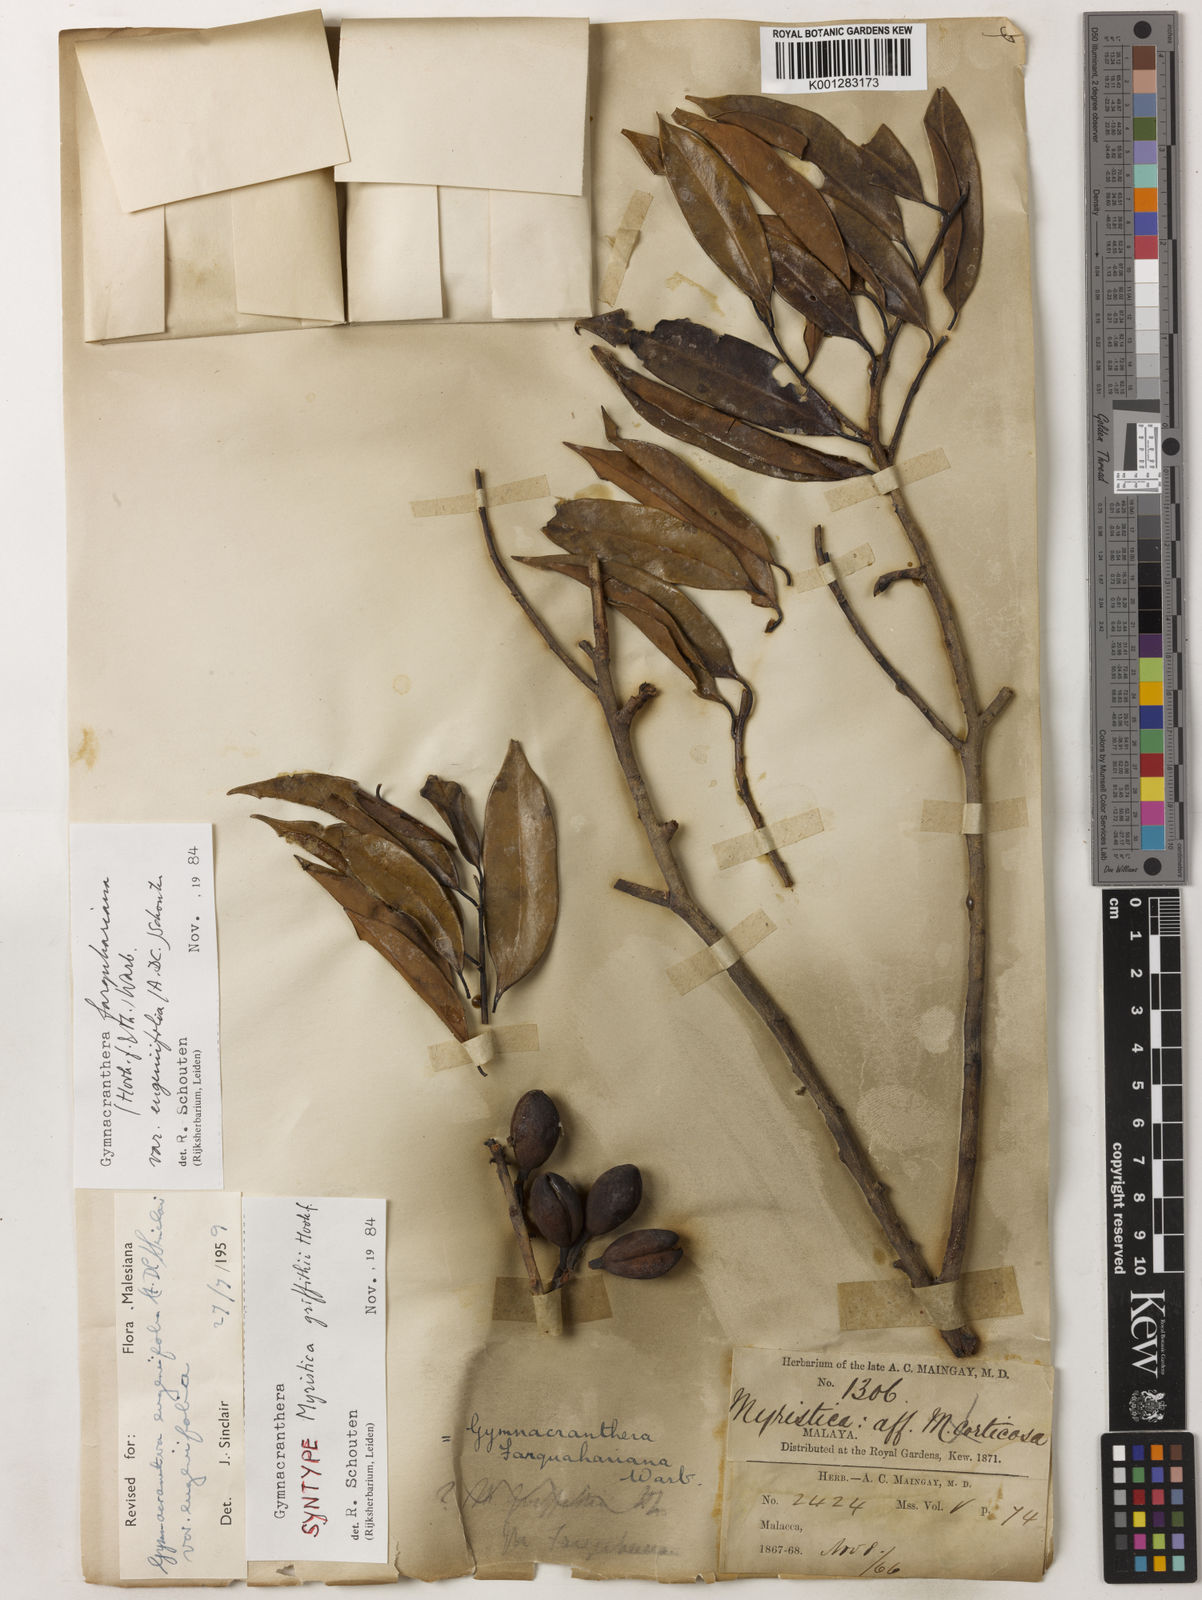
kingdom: Plantae
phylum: Tracheophyta
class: Magnoliopsida
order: Magnoliales
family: Myristicaceae
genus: Gymnacranthera
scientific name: Gymnacranthera farquhariana
